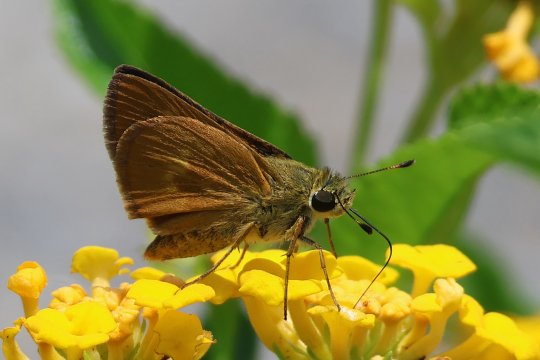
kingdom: Animalia
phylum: Arthropoda
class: Insecta
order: Lepidoptera
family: Hesperiidae
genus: Wallengrenia
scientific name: Wallengrenia otho
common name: Southern Broken-Dash
